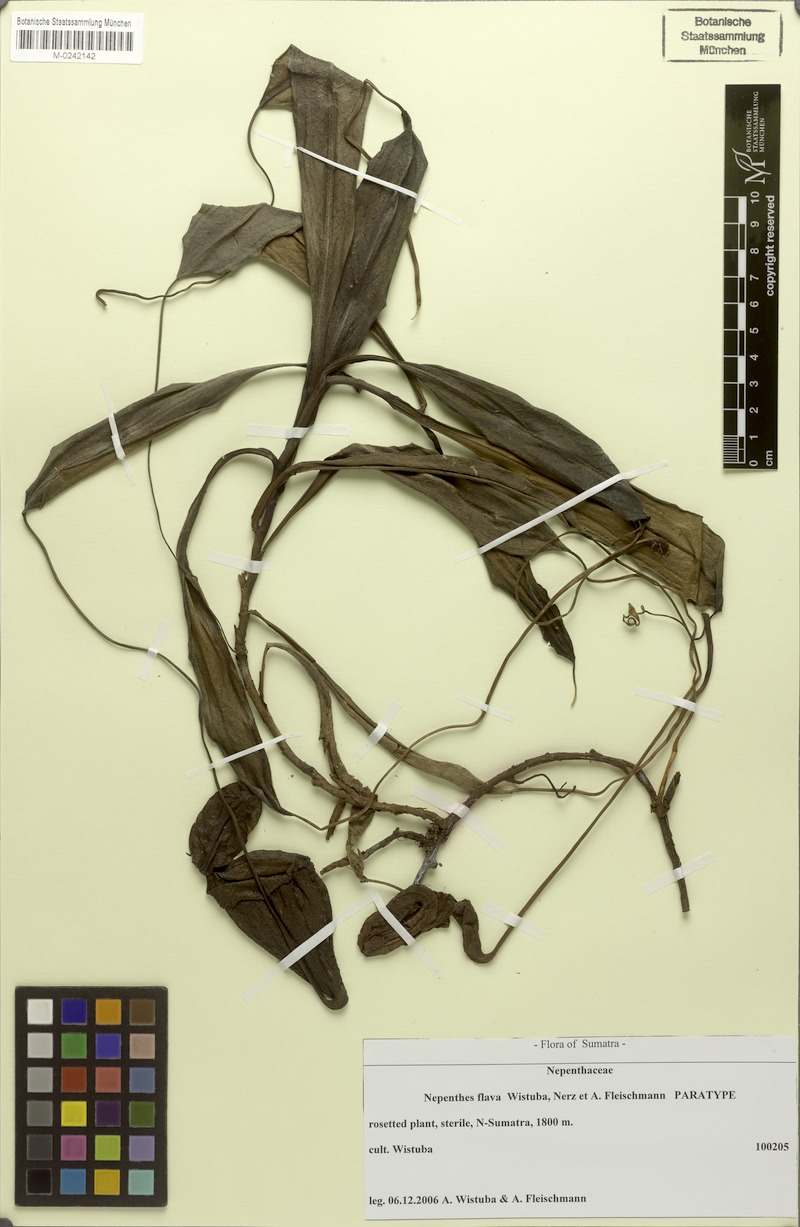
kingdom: Plantae
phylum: Tracheophyta
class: Magnoliopsida
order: Caryophyllales
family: Nepenthaceae
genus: Nepenthes
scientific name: Nepenthes flava
